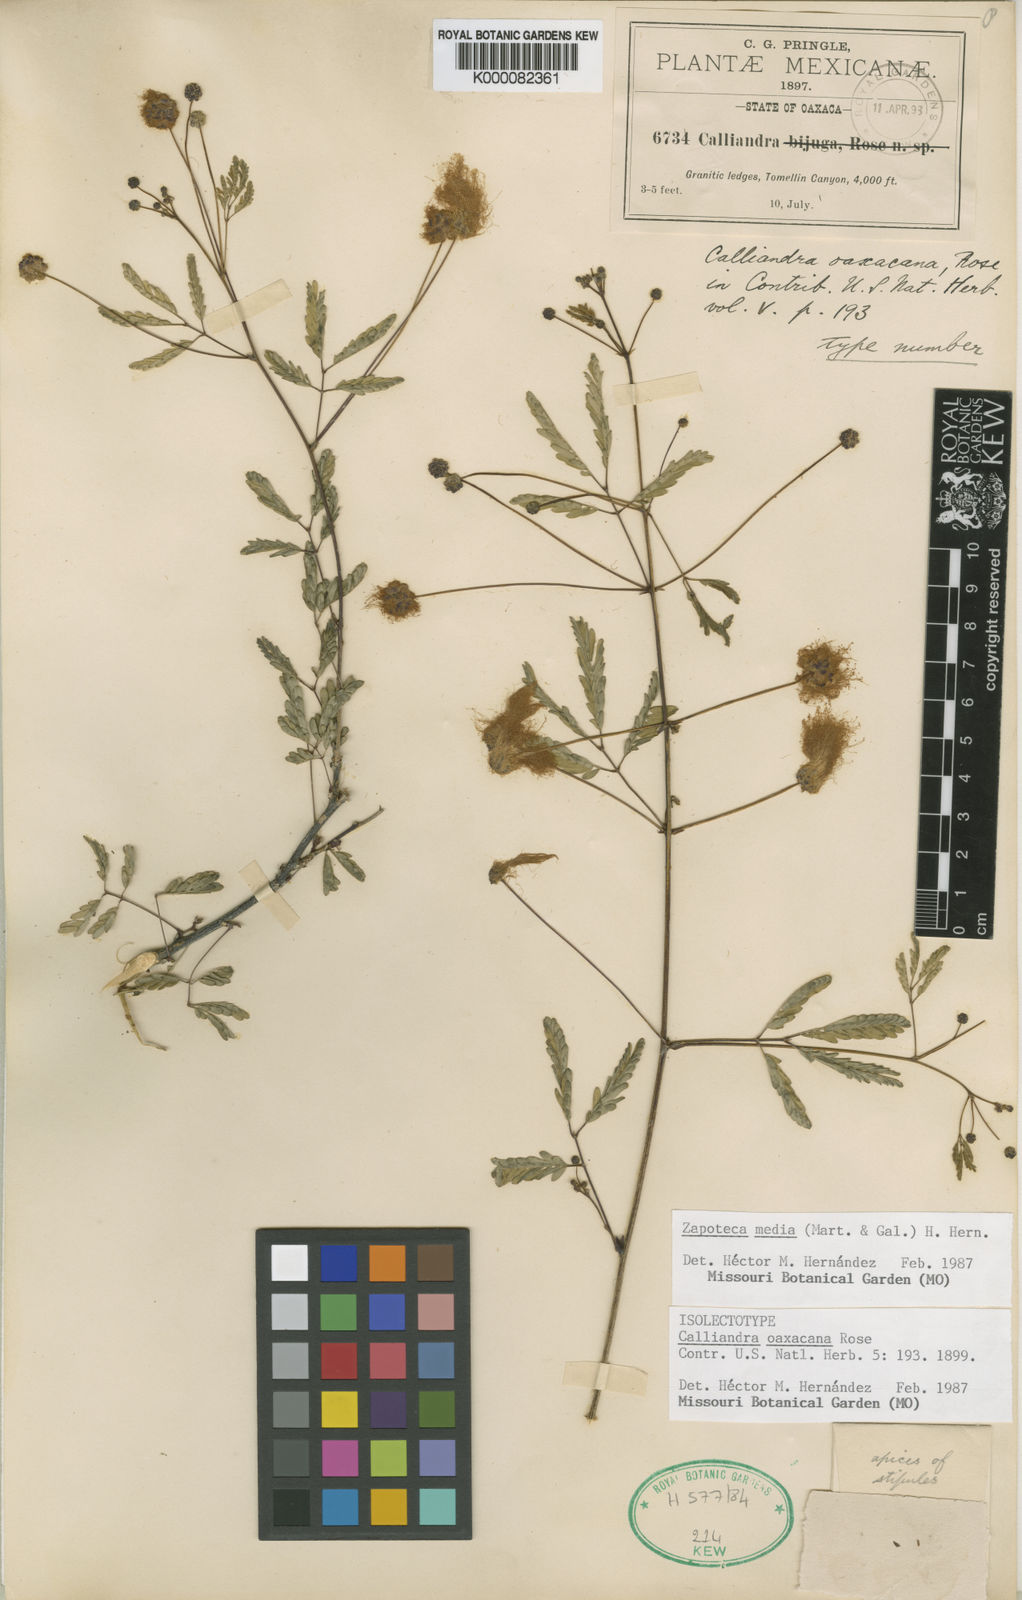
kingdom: Plantae
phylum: Tracheophyta
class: Magnoliopsida
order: Fabales
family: Fabaceae
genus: Zapoteca
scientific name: Zapoteca media
